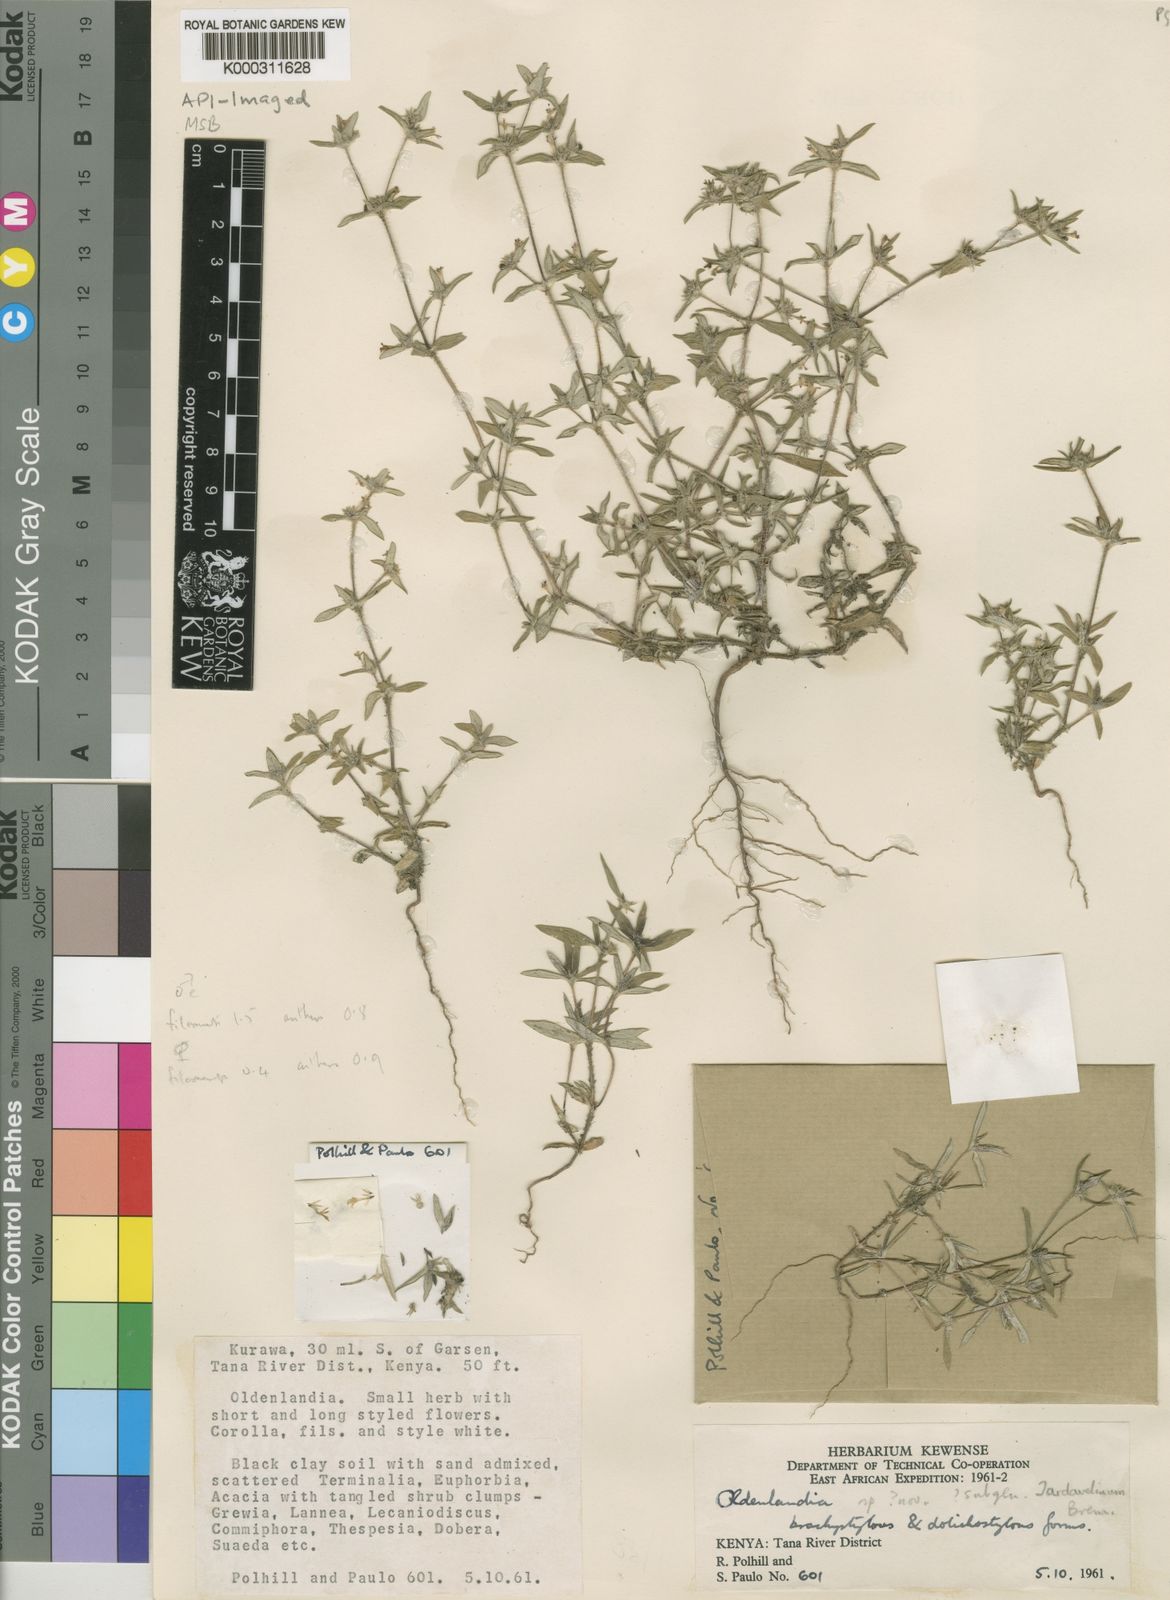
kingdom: Plantae
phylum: Tracheophyta
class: Magnoliopsida
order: Gentianales
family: Rubiaceae
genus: Oldenlandia
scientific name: Oldenlandia cryptocarpa
